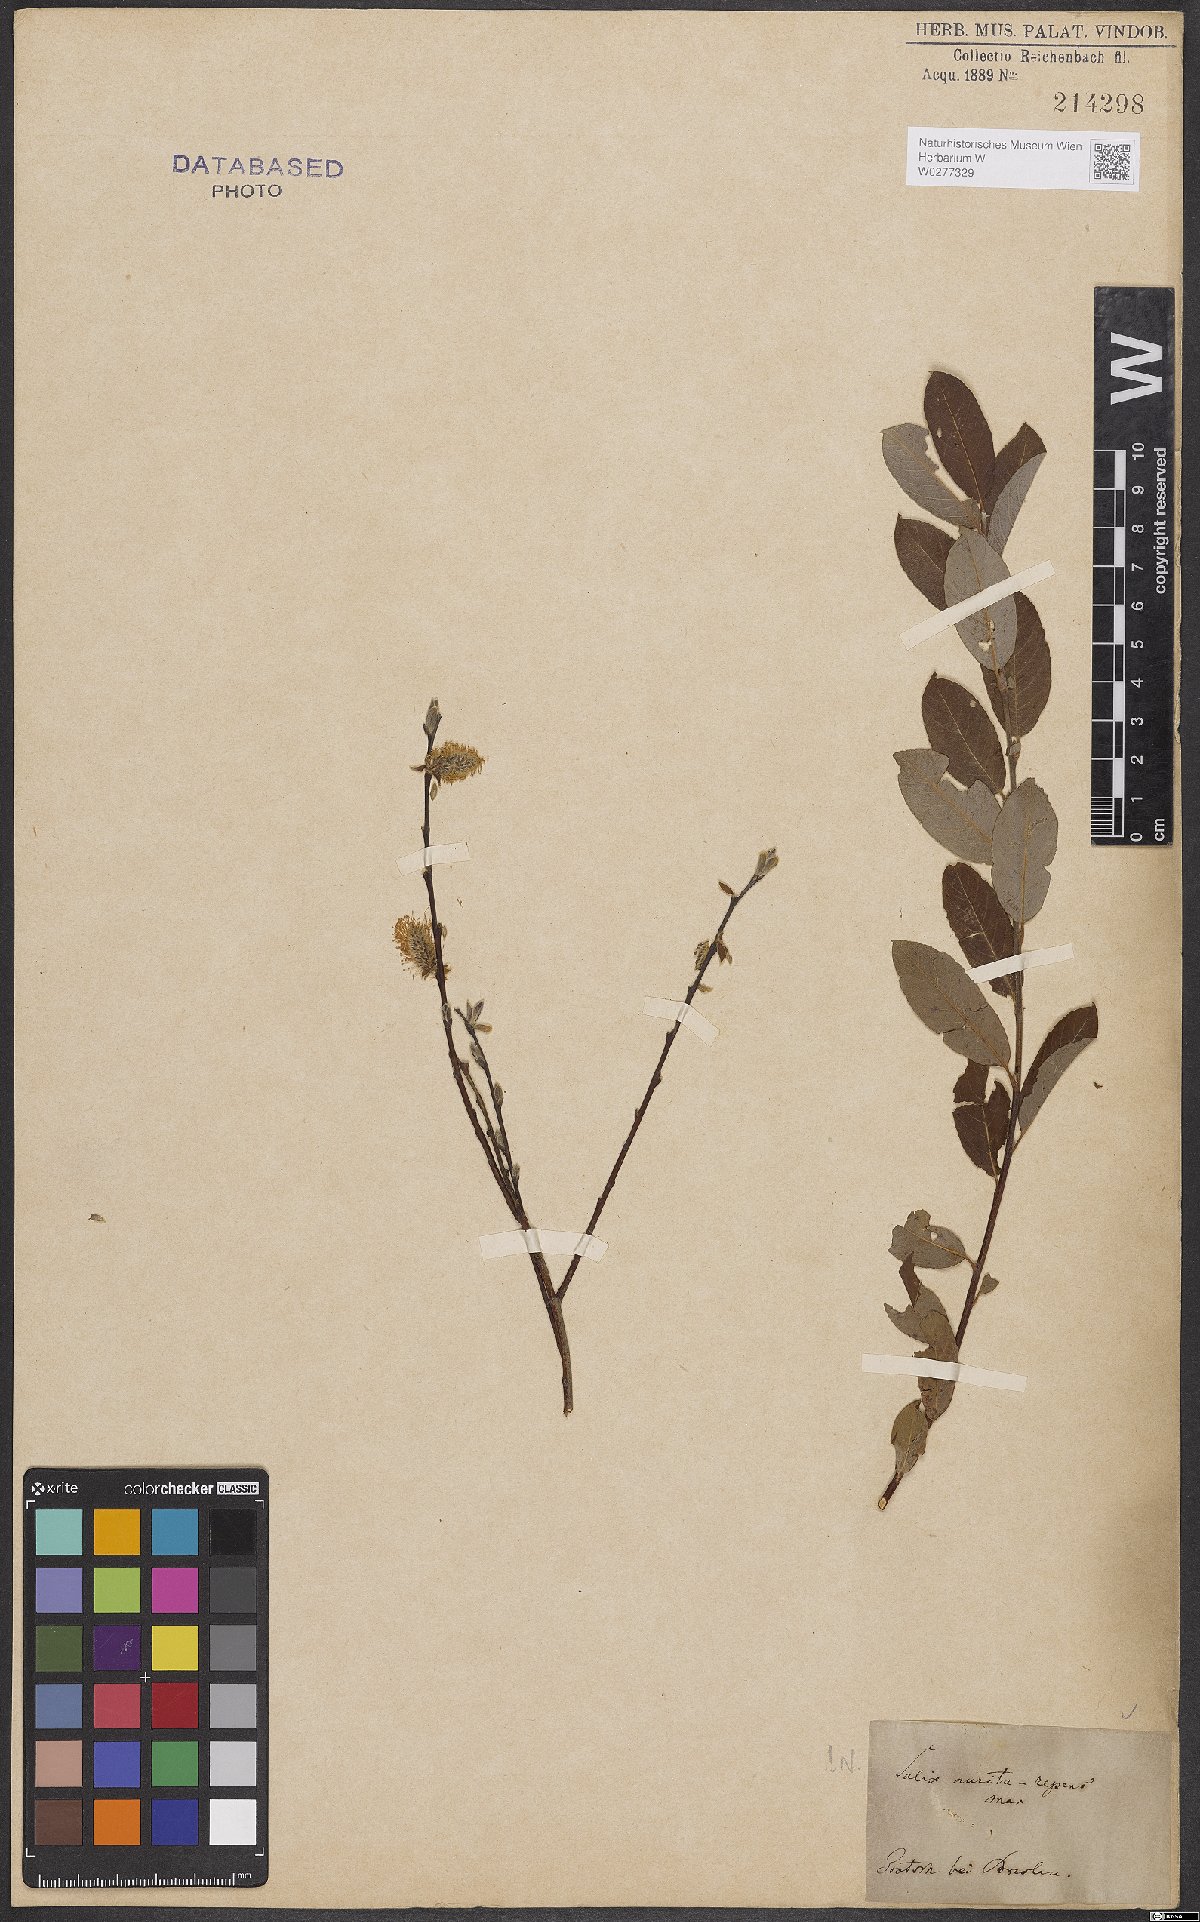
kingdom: Plantae
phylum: Tracheophyta
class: Magnoliopsida
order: Malpighiales
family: Salicaceae
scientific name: Salicaceae
